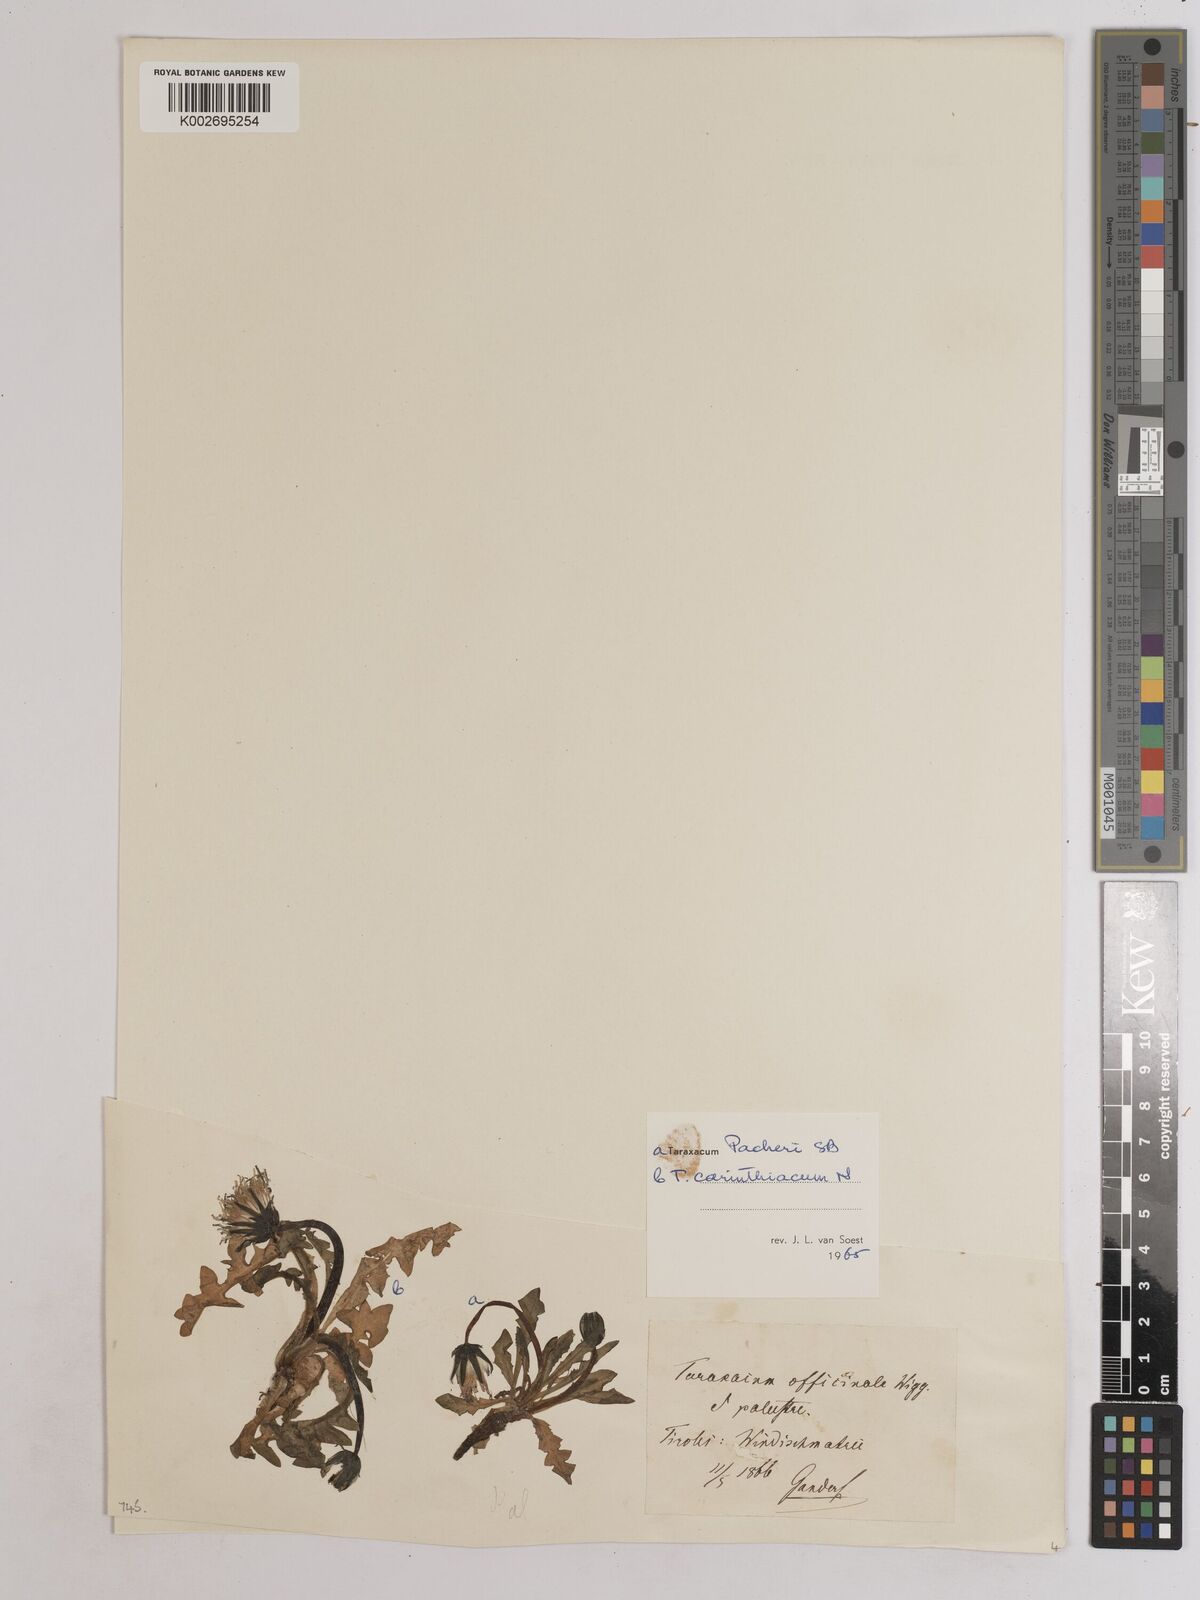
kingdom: Plantae
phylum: Tracheophyta
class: Magnoliopsida
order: Asterales
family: Asteraceae
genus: Taraxacum
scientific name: Taraxacum officinale
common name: Common dandelion
